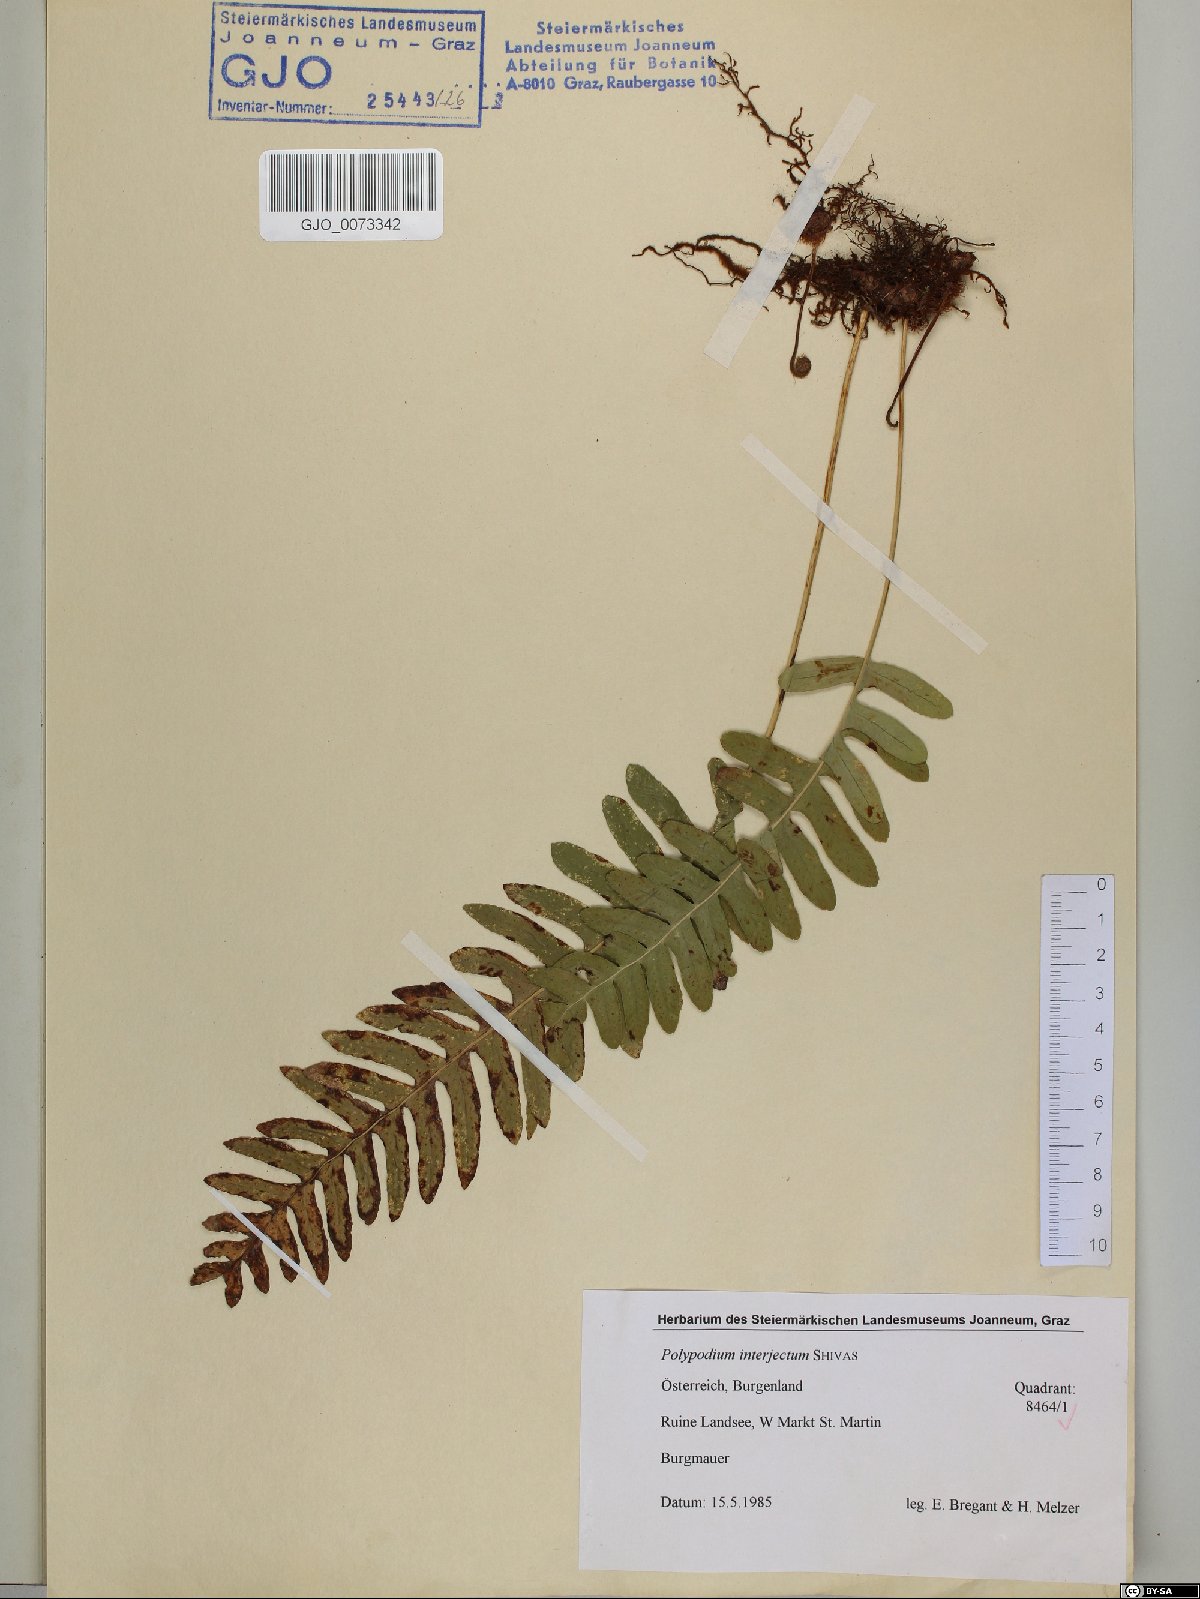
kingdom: Plantae
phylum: Tracheophyta
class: Polypodiopsida
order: Polypodiales
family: Polypodiaceae
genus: Polypodium
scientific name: Polypodium interjectum
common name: Intermediate polypody
